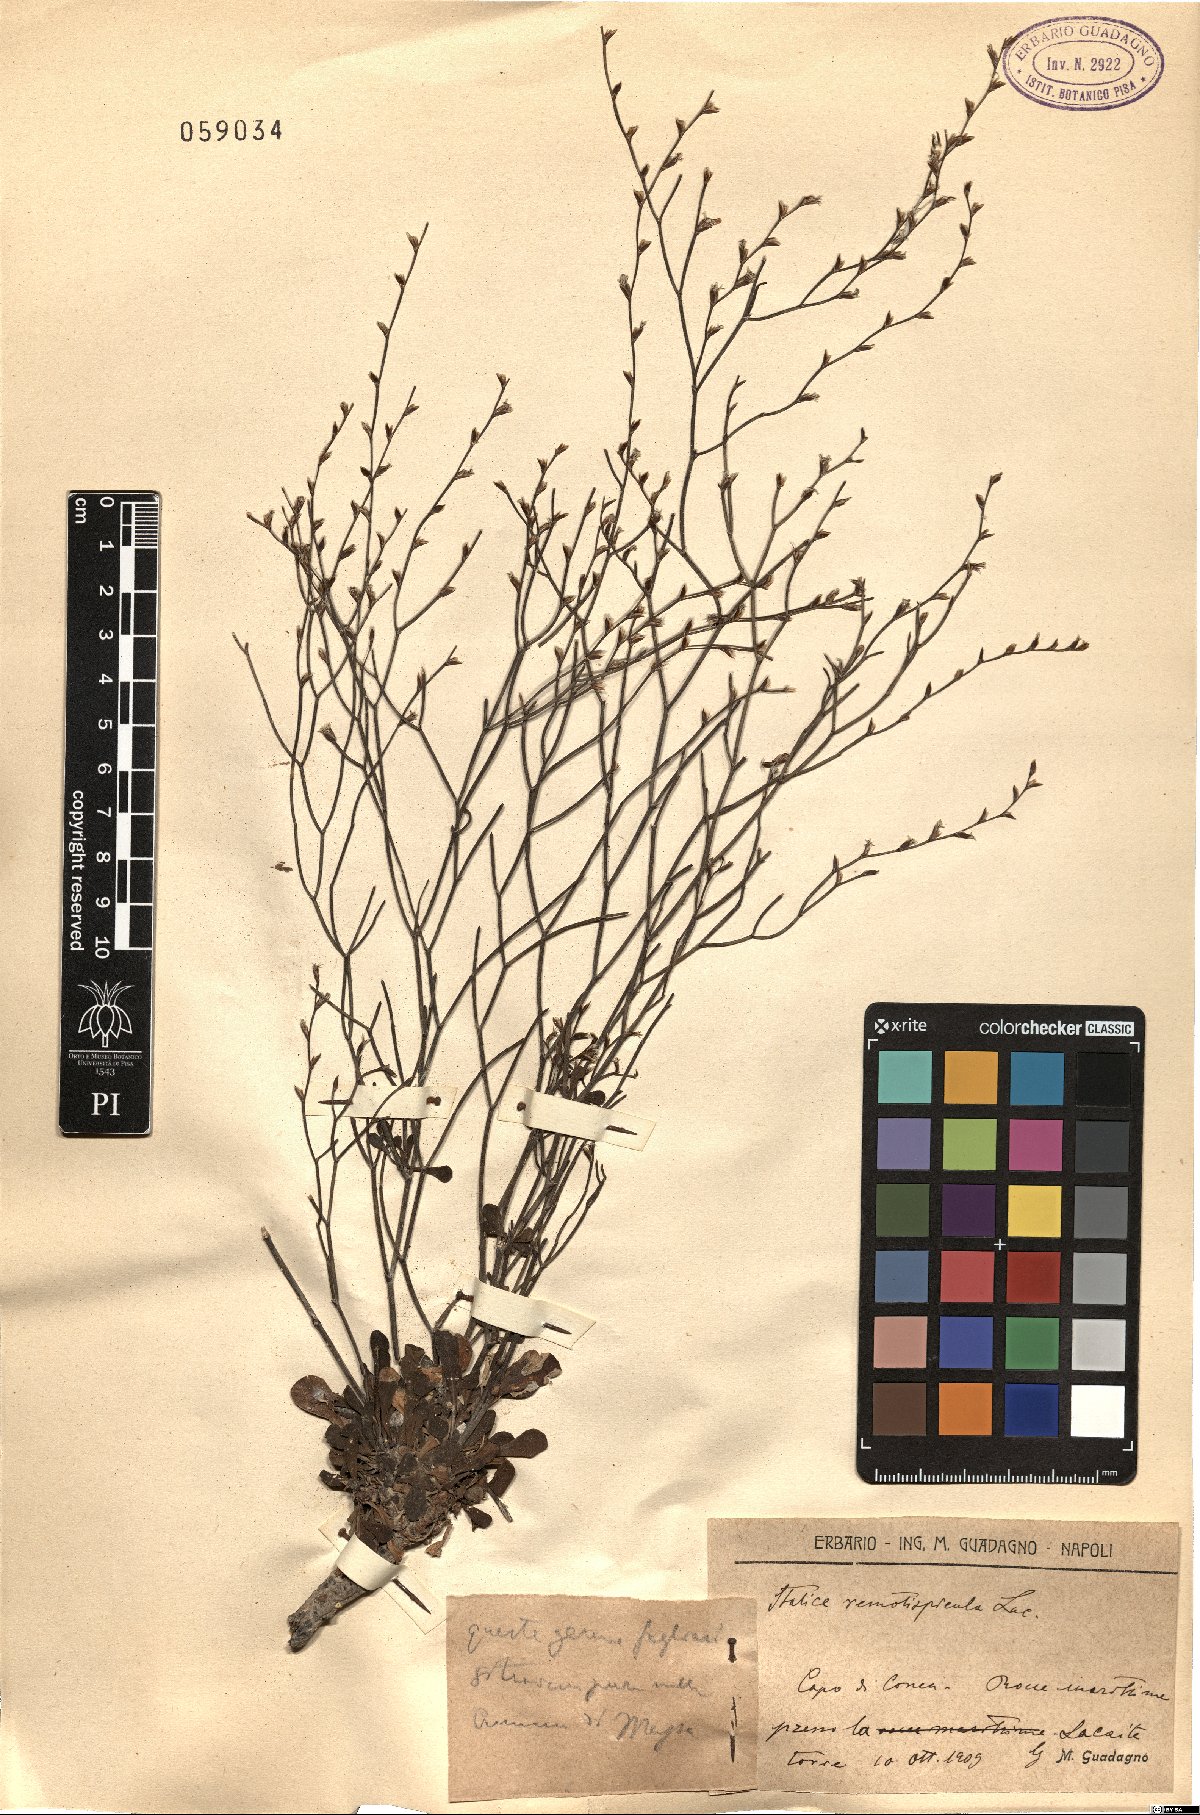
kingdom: Plantae
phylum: Tracheophyta
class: Magnoliopsida
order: Caryophyllales
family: Plumbaginaceae
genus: Limonium
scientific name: Limonium remotispiculum
